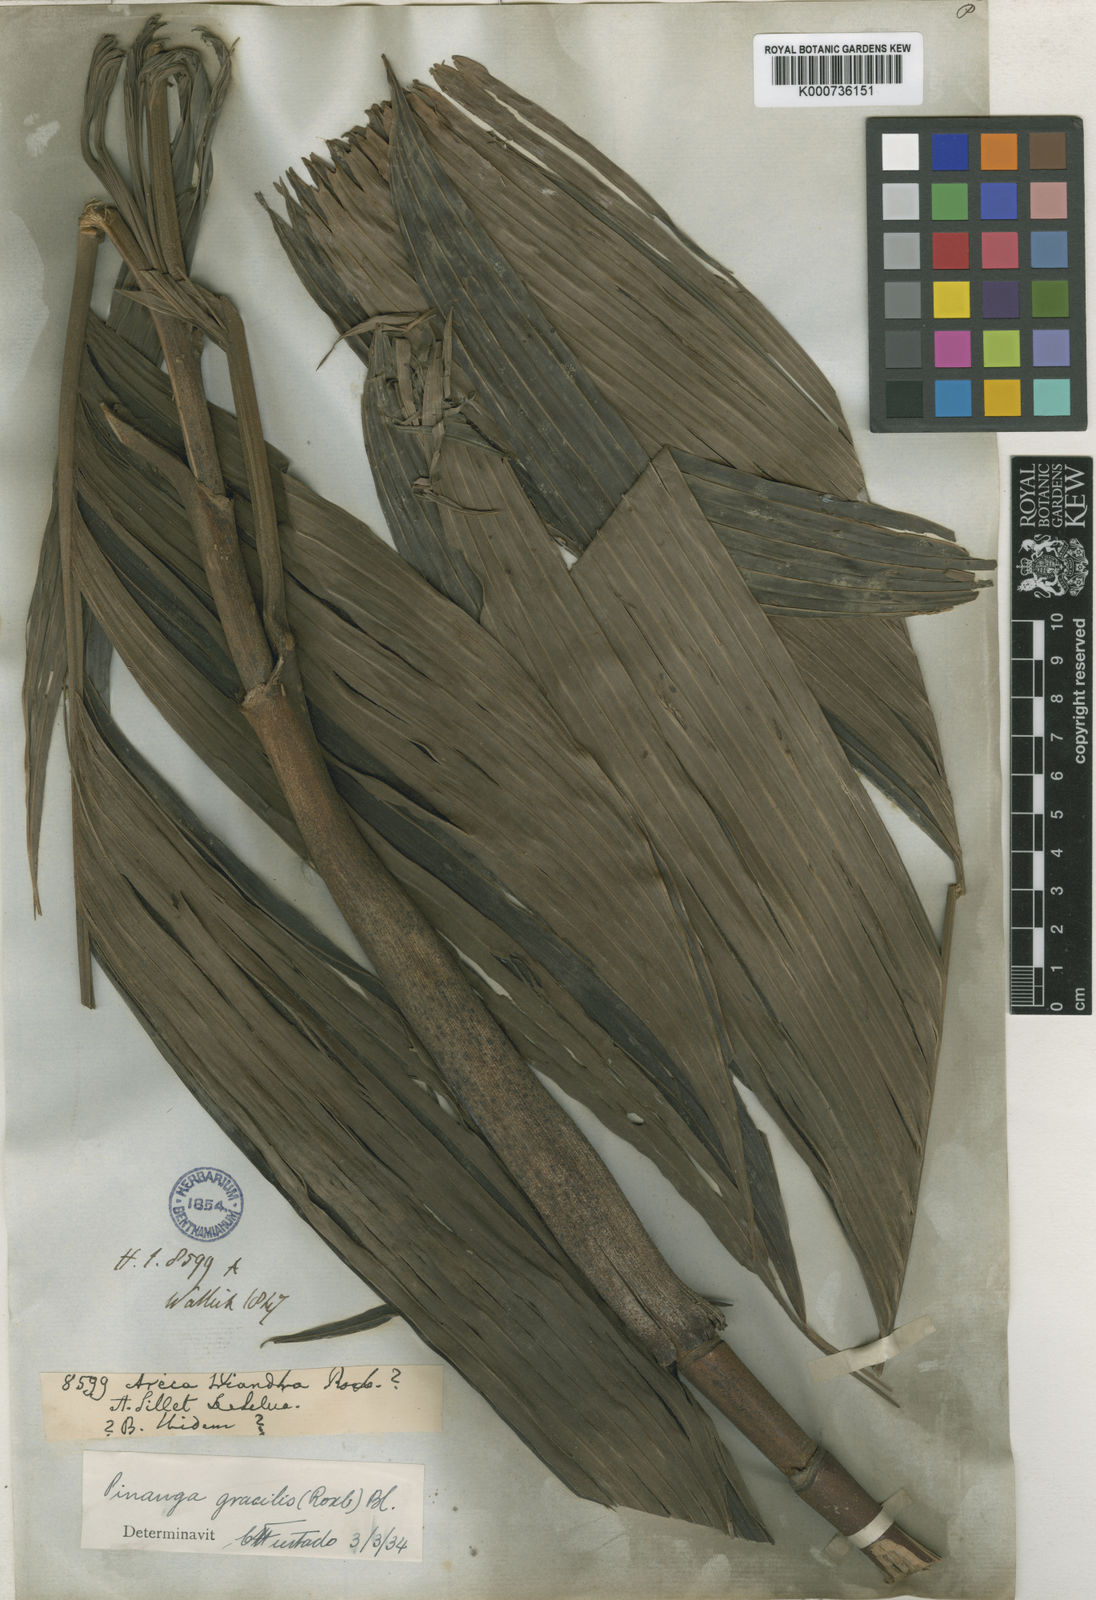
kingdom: Plantae
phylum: Tracheophyta
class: Liliopsida
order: Arecales
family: Arecaceae
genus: Pinanga
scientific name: Pinanga gracilis
